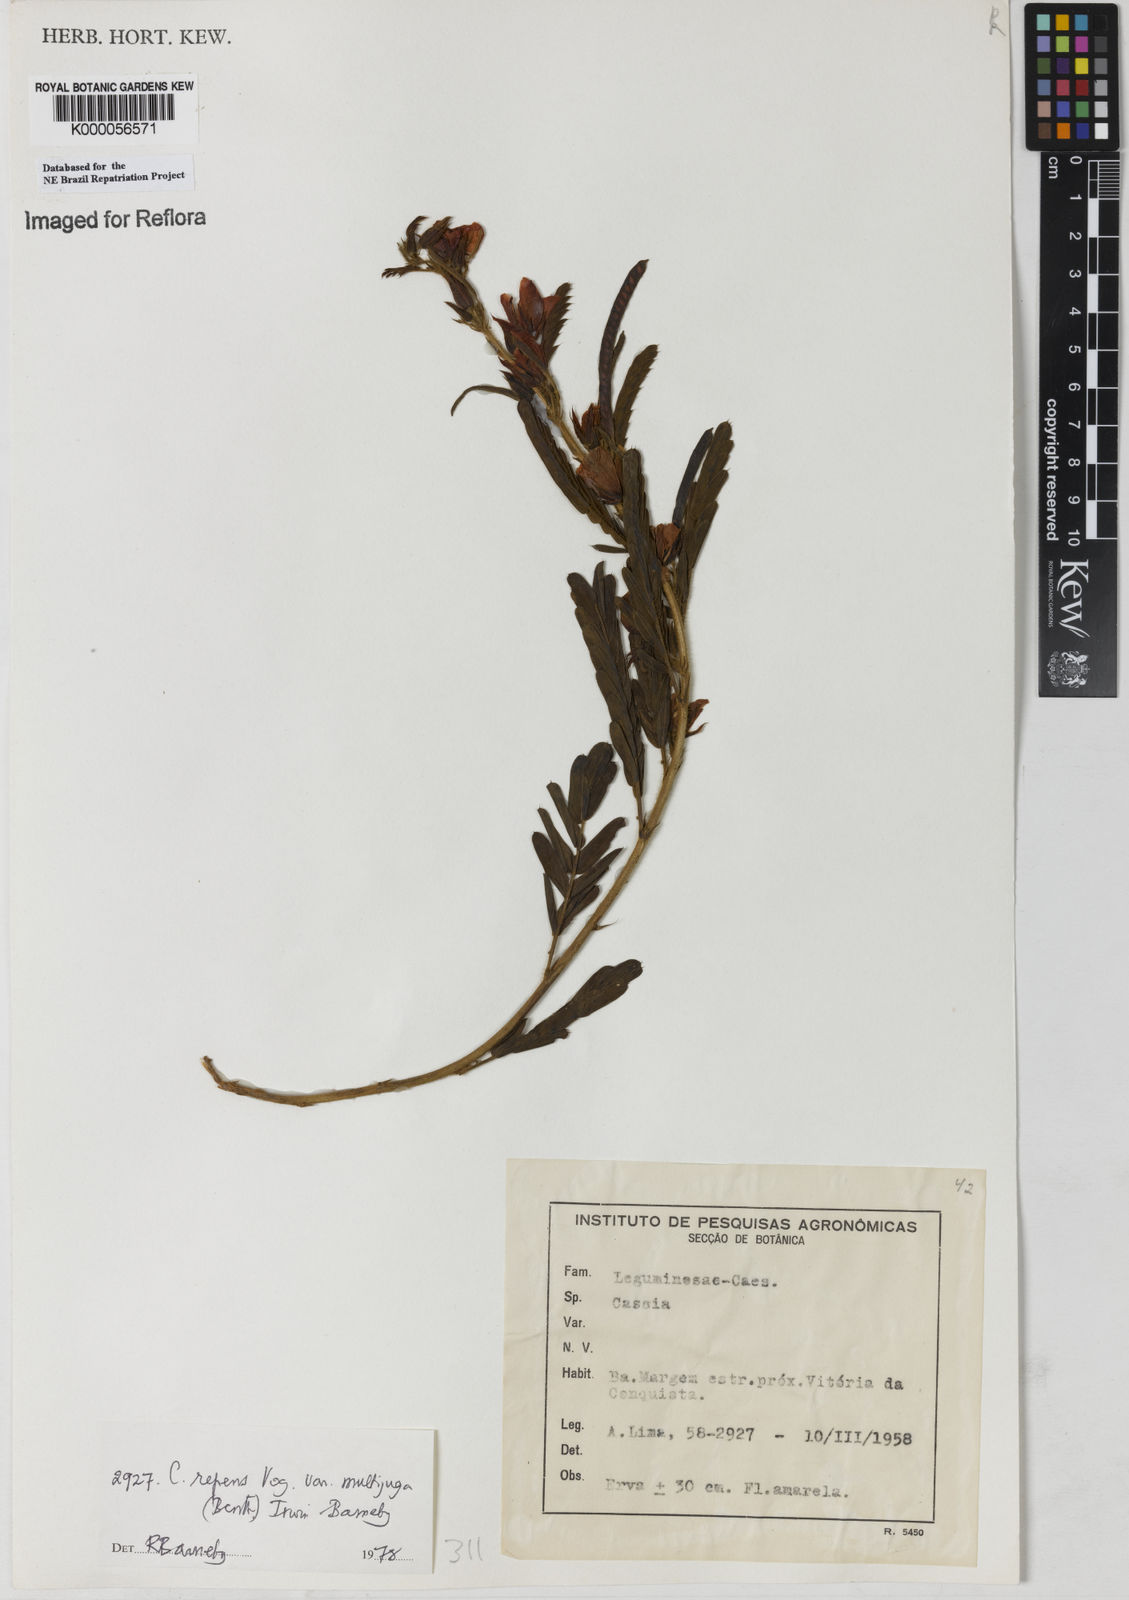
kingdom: Plantae
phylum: Tracheophyta
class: Magnoliopsida
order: Fabales
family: Fabaceae
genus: Chamaecrista
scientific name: Chamaecrista repens
